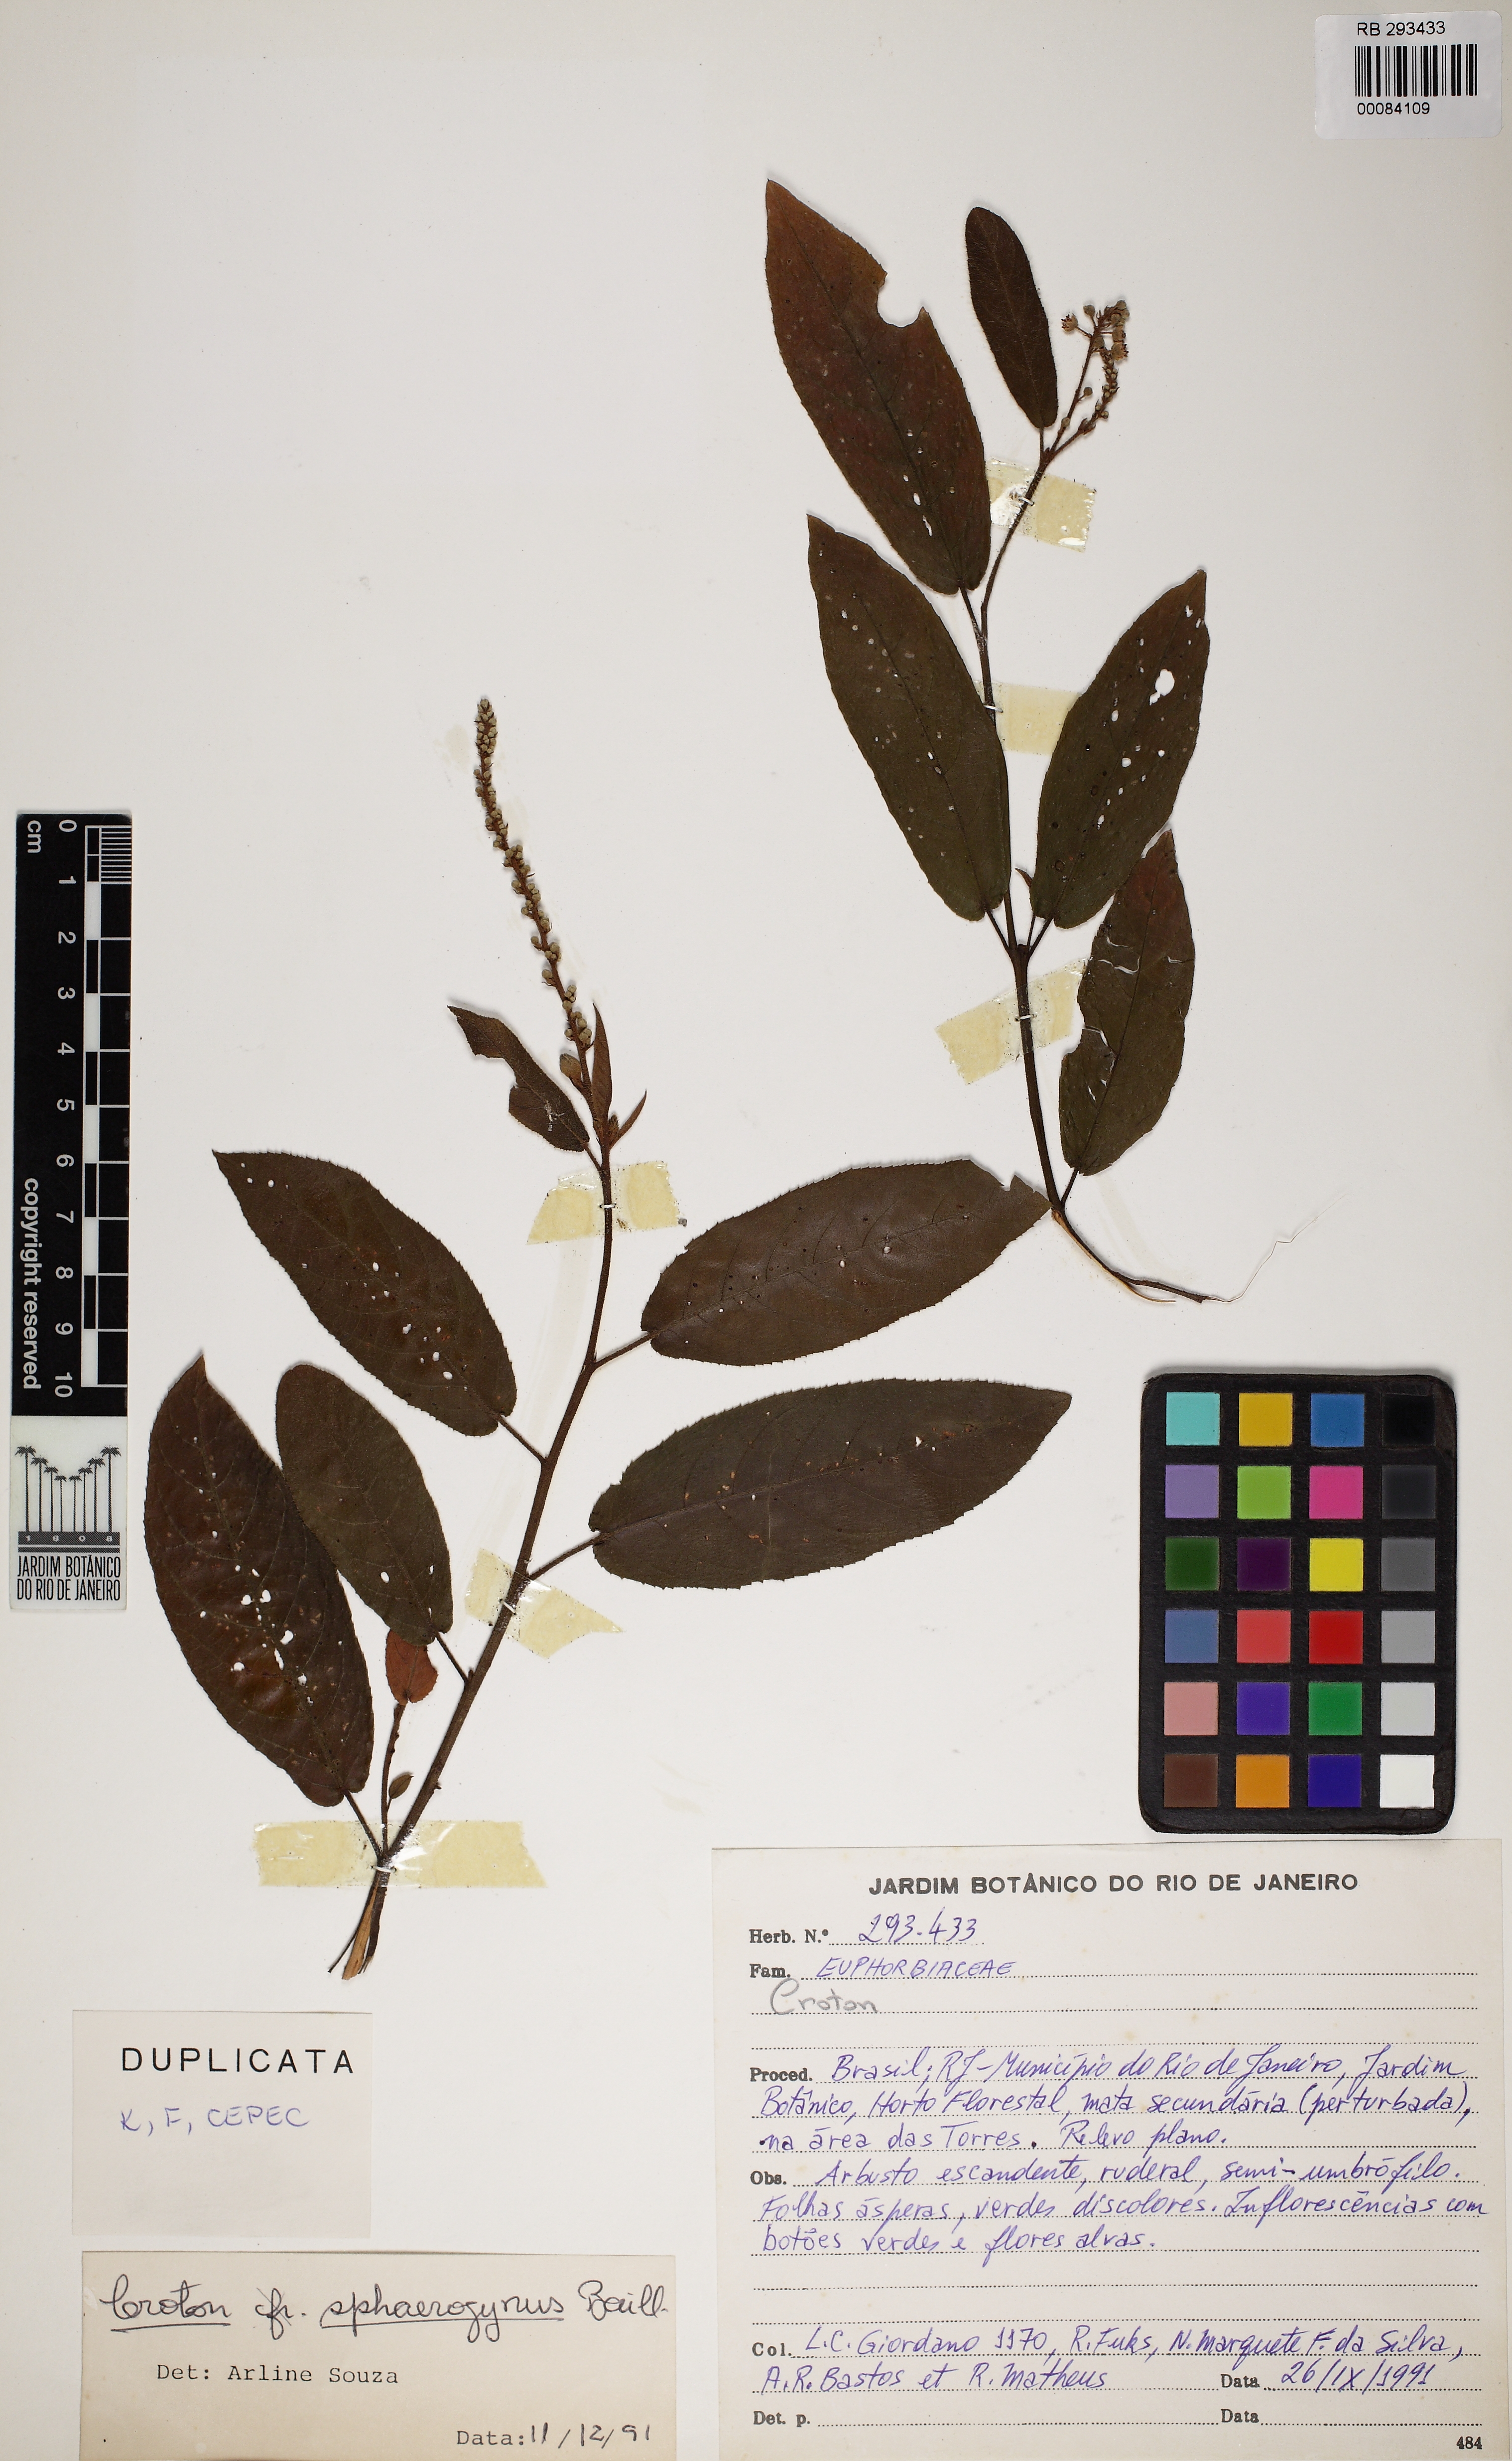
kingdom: Plantae
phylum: Tracheophyta
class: Magnoliopsida
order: Malpighiales
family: Euphorbiaceae
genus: Croton
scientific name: Croton sphaerogynus
